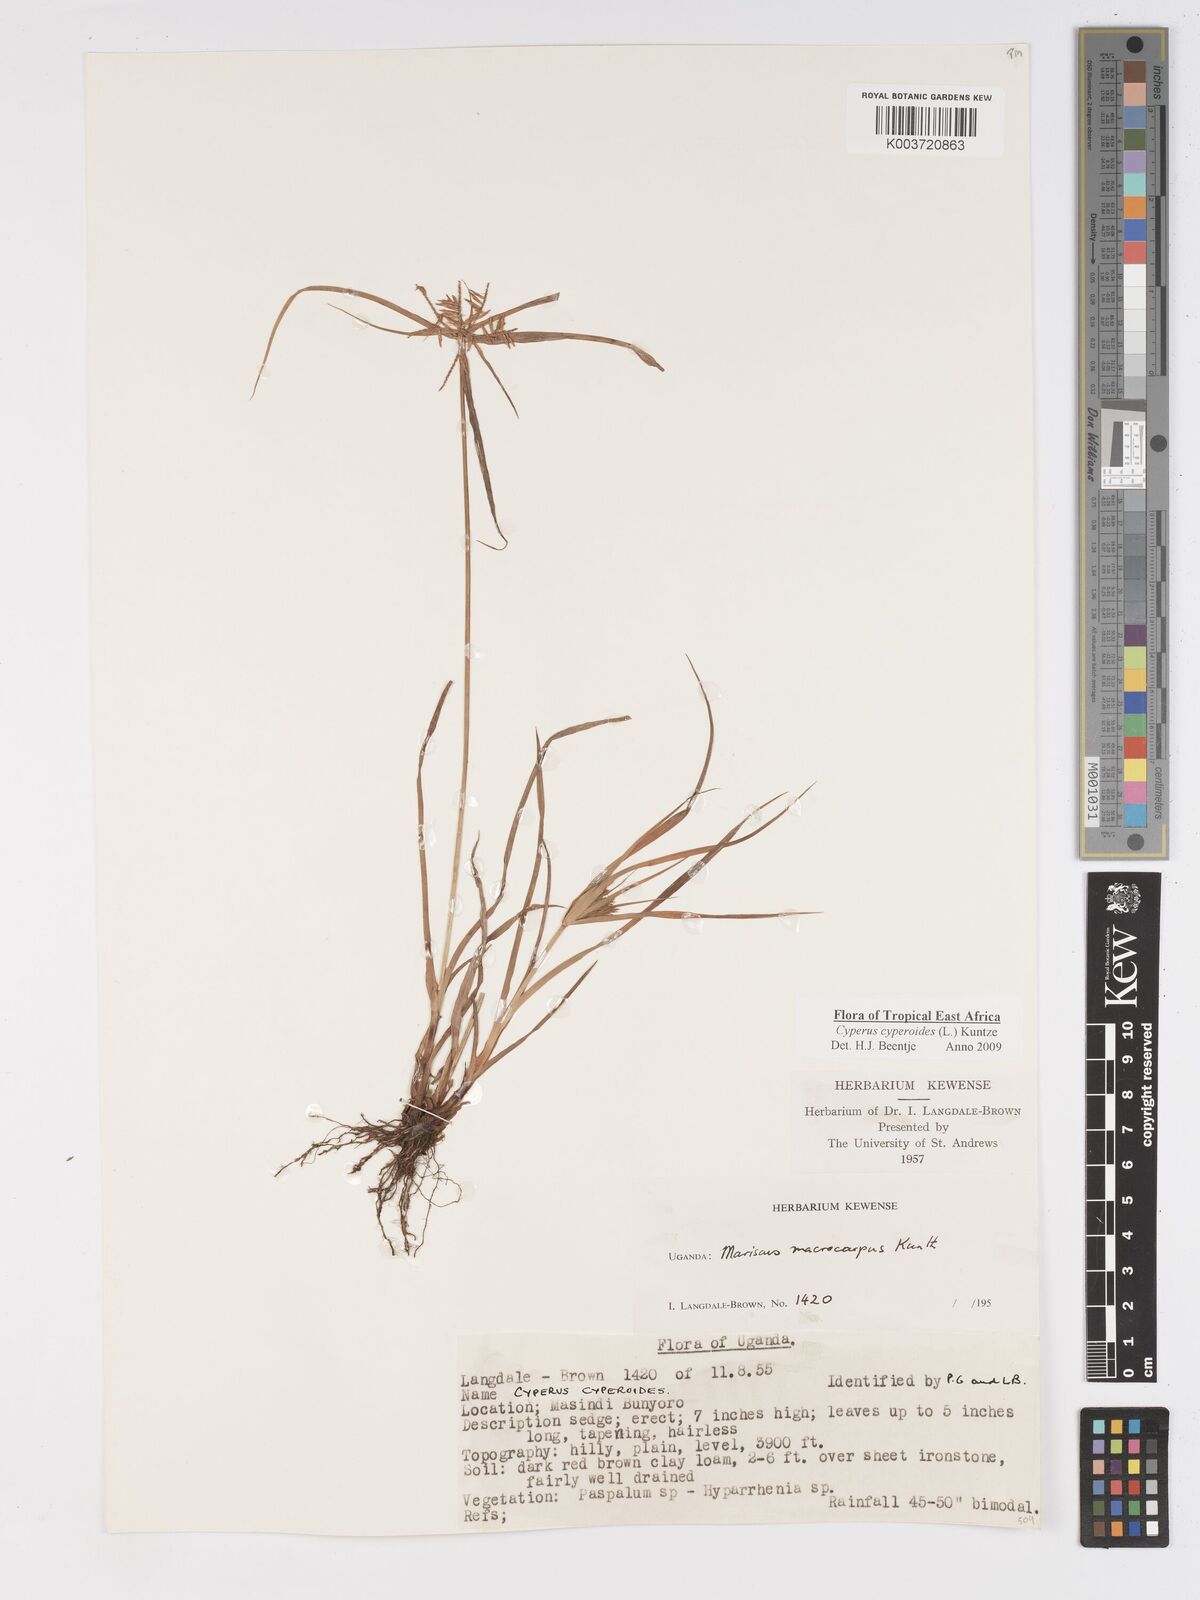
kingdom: Plantae
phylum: Tracheophyta
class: Liliopsida
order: Poales
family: Cyperaceae
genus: Cyperus
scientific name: Cyperus macrocarpus
